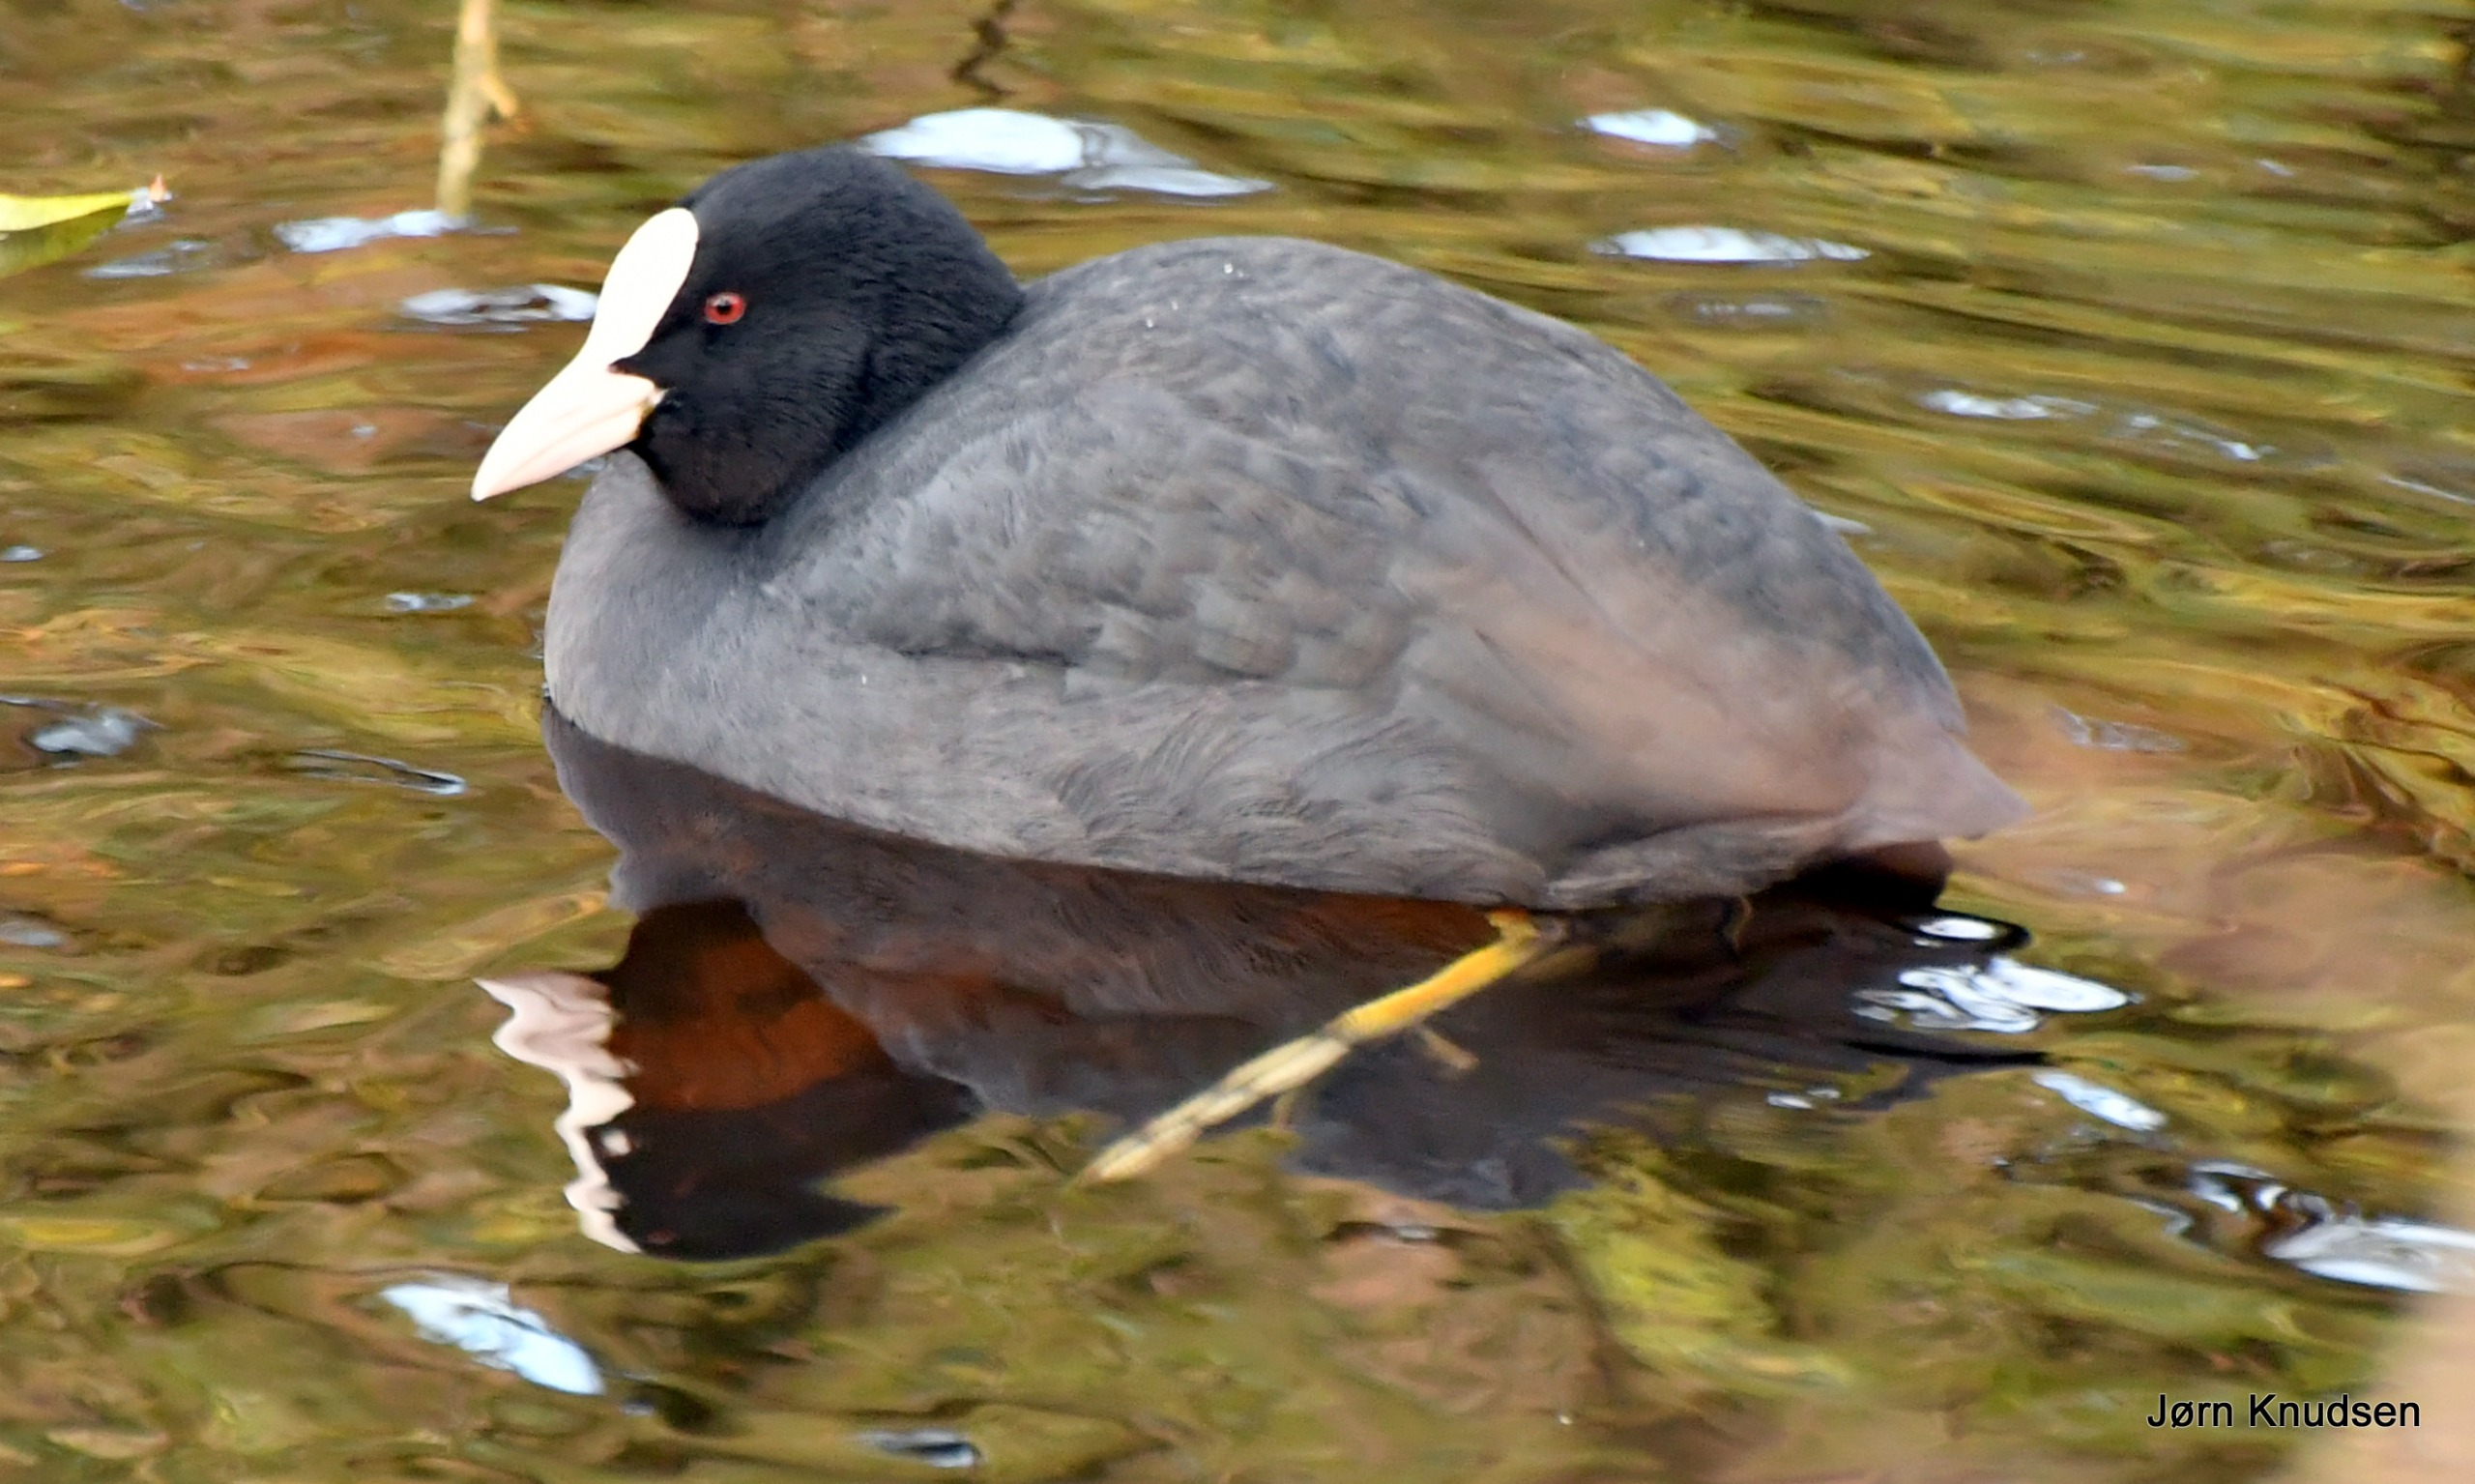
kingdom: Animalia
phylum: Chordata
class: Aves
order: Gruiformes
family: Rallidae
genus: Fulica
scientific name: Fulica atra
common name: Blishøne
